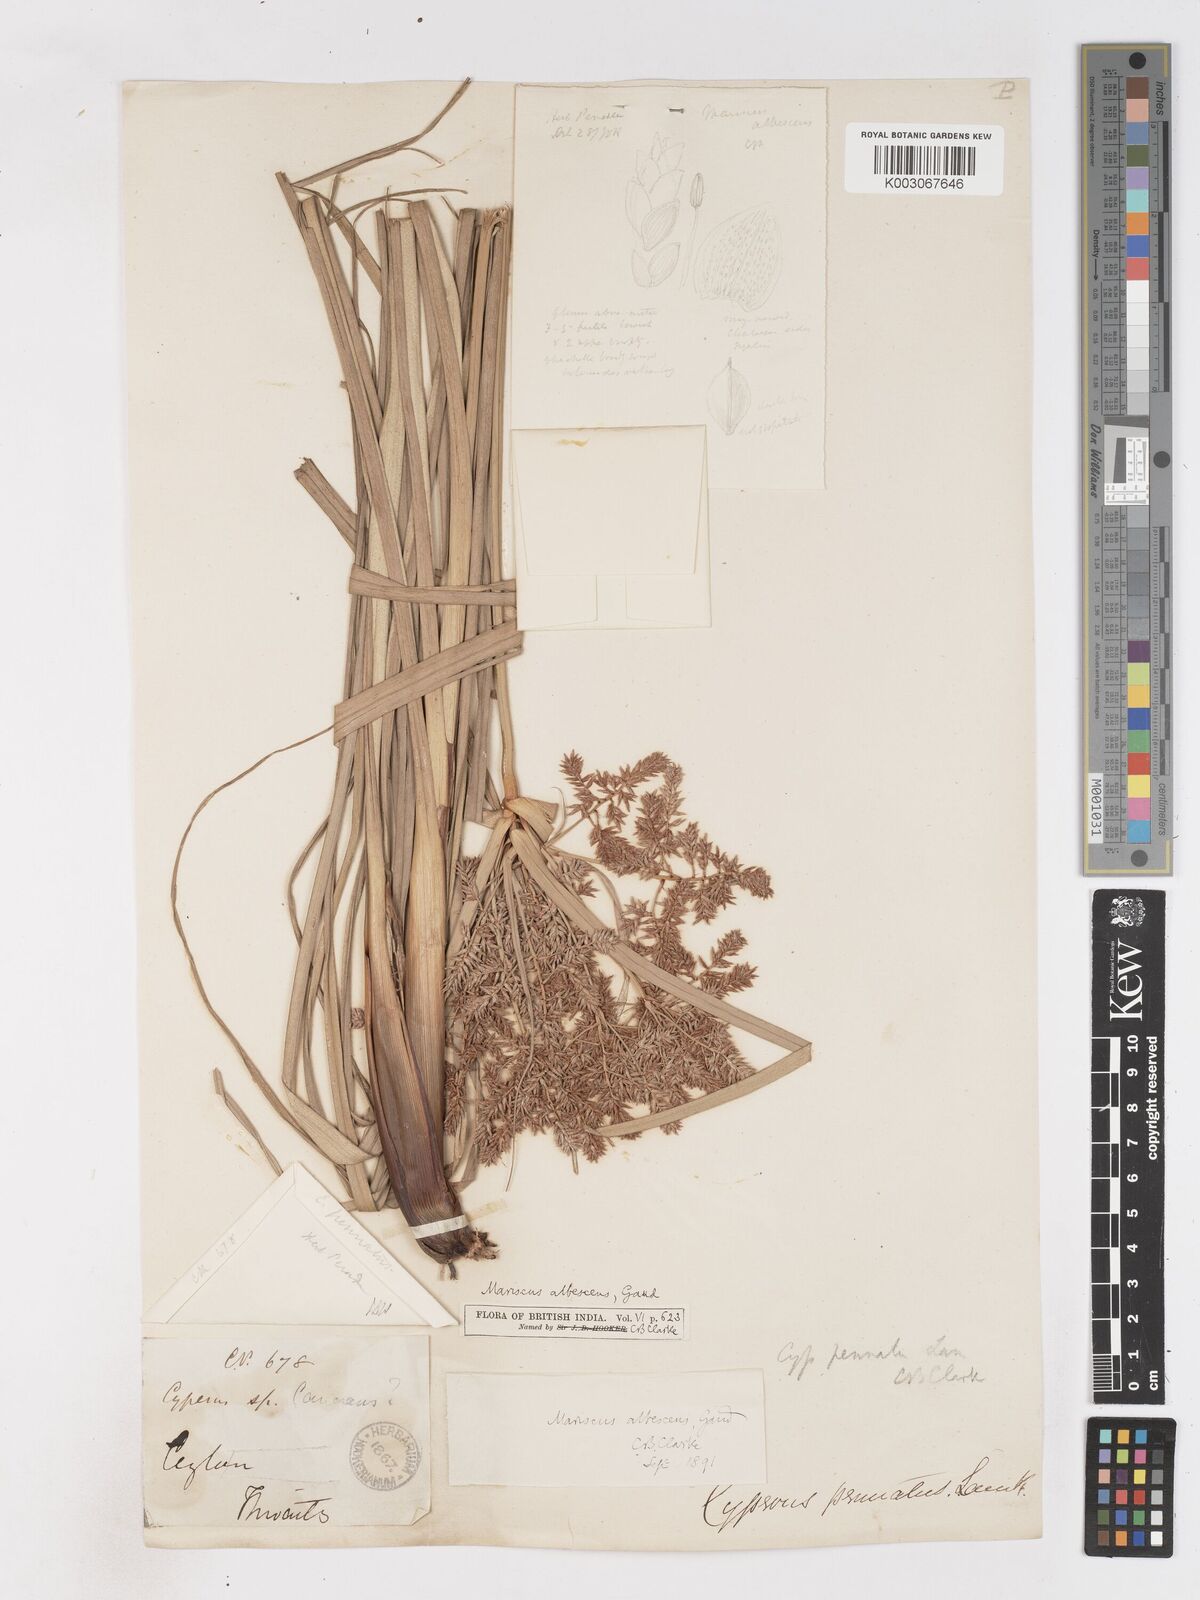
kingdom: Plantae
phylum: Tracheophyta
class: Liliopsida
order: Poales
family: Cyperaceae
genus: Cyperus
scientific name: Cyperus javanicus
